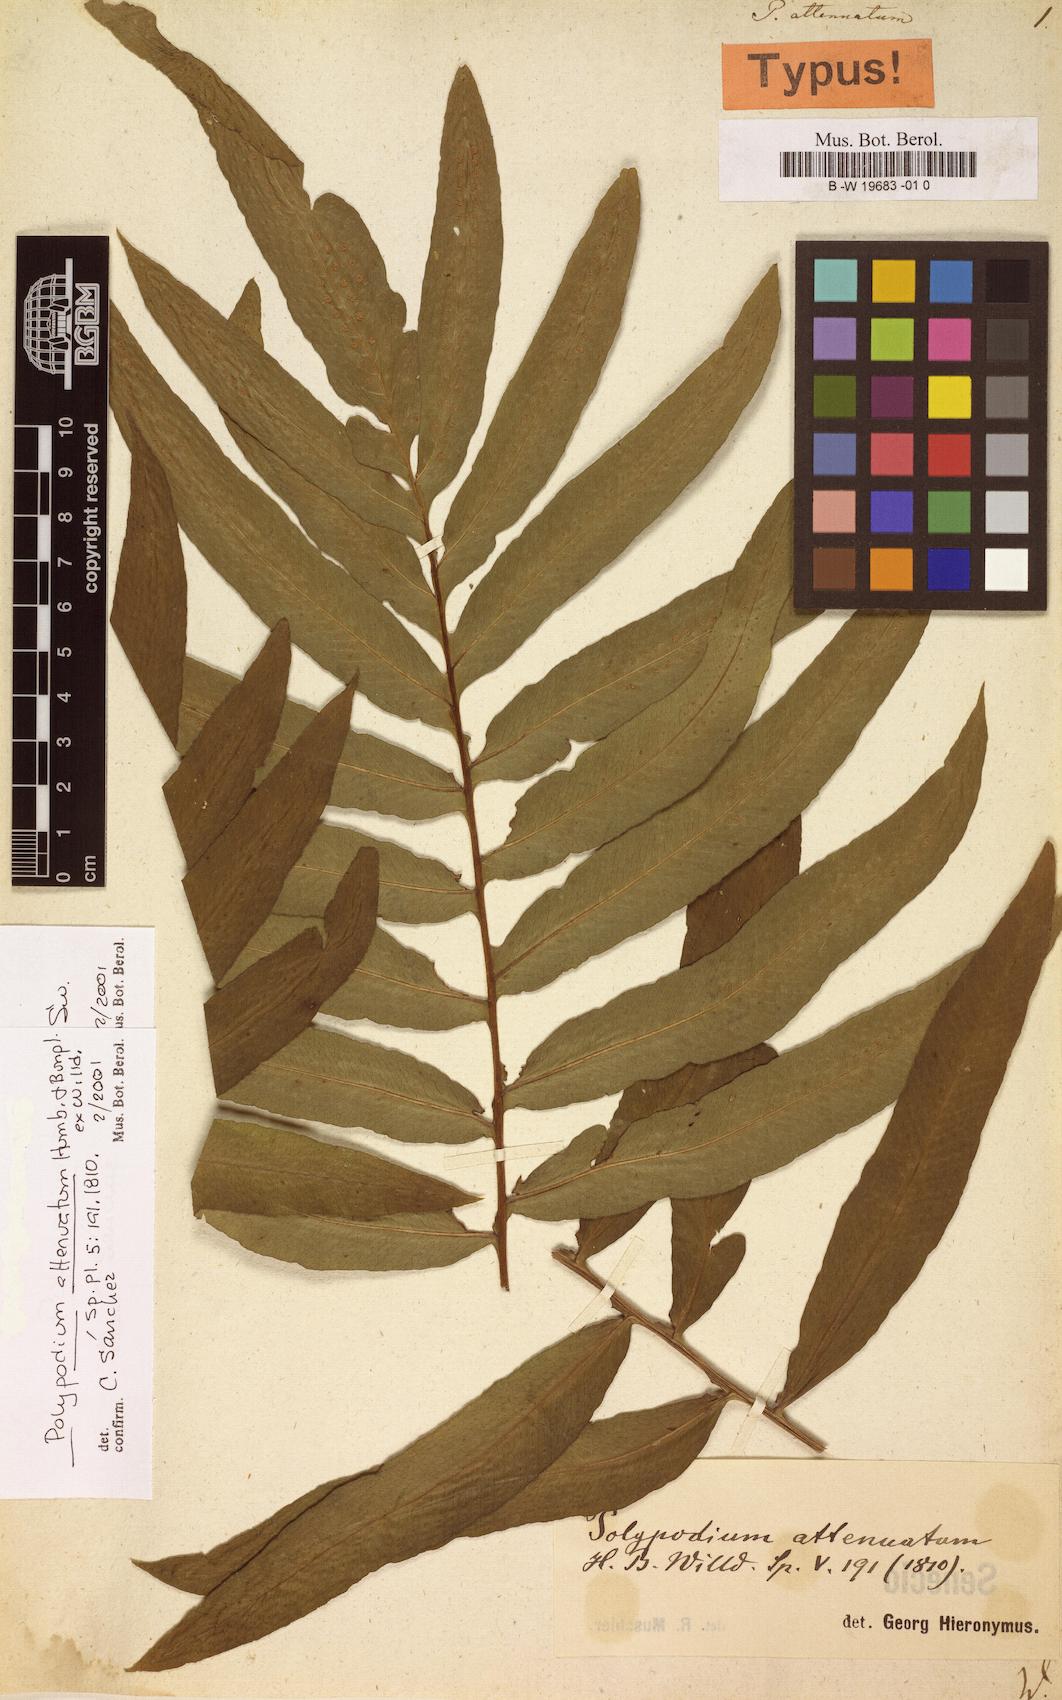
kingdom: Plantae
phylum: Tracheophyta
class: Polypodiopsida
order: Polypodiales
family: Polypodiaceae
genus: Serpocaulon
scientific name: Serpocaulon attenuatum
